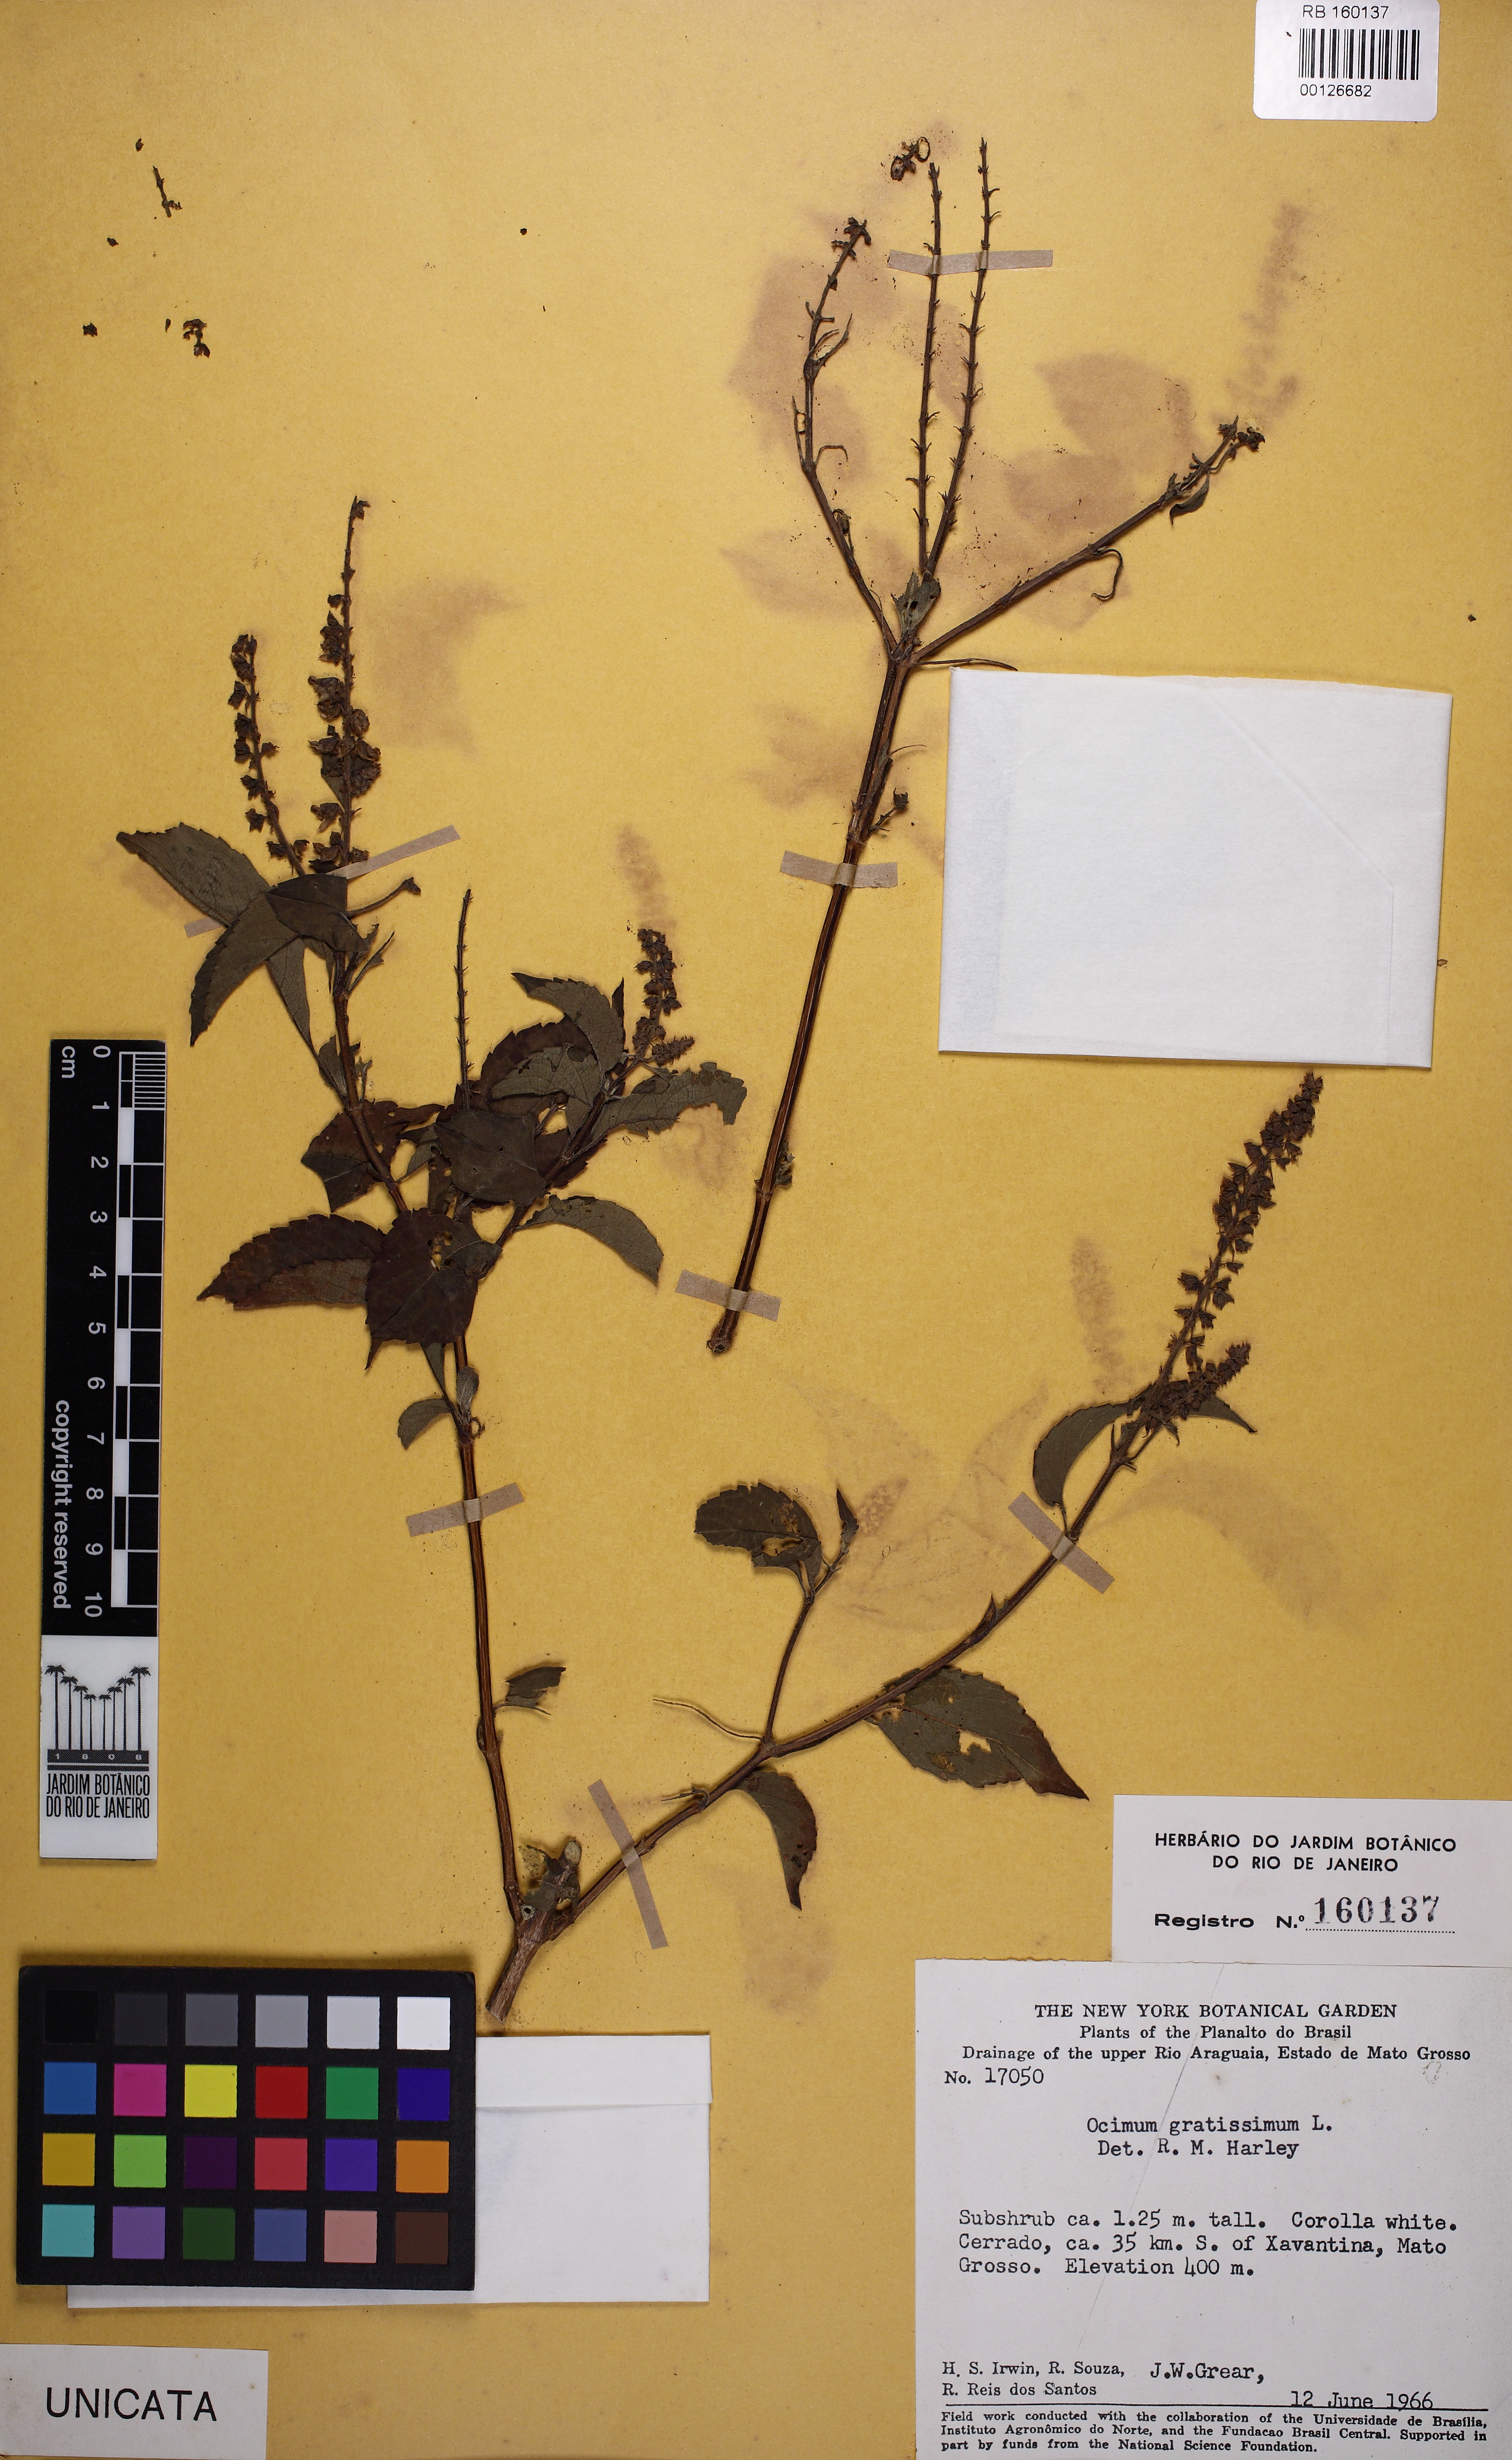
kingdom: Plantae
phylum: Tracheophyta
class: Magnoliopsida
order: Lamiales
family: Lamiaceae
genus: Ocimum
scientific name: Ocimum gratissimum
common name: African basil
